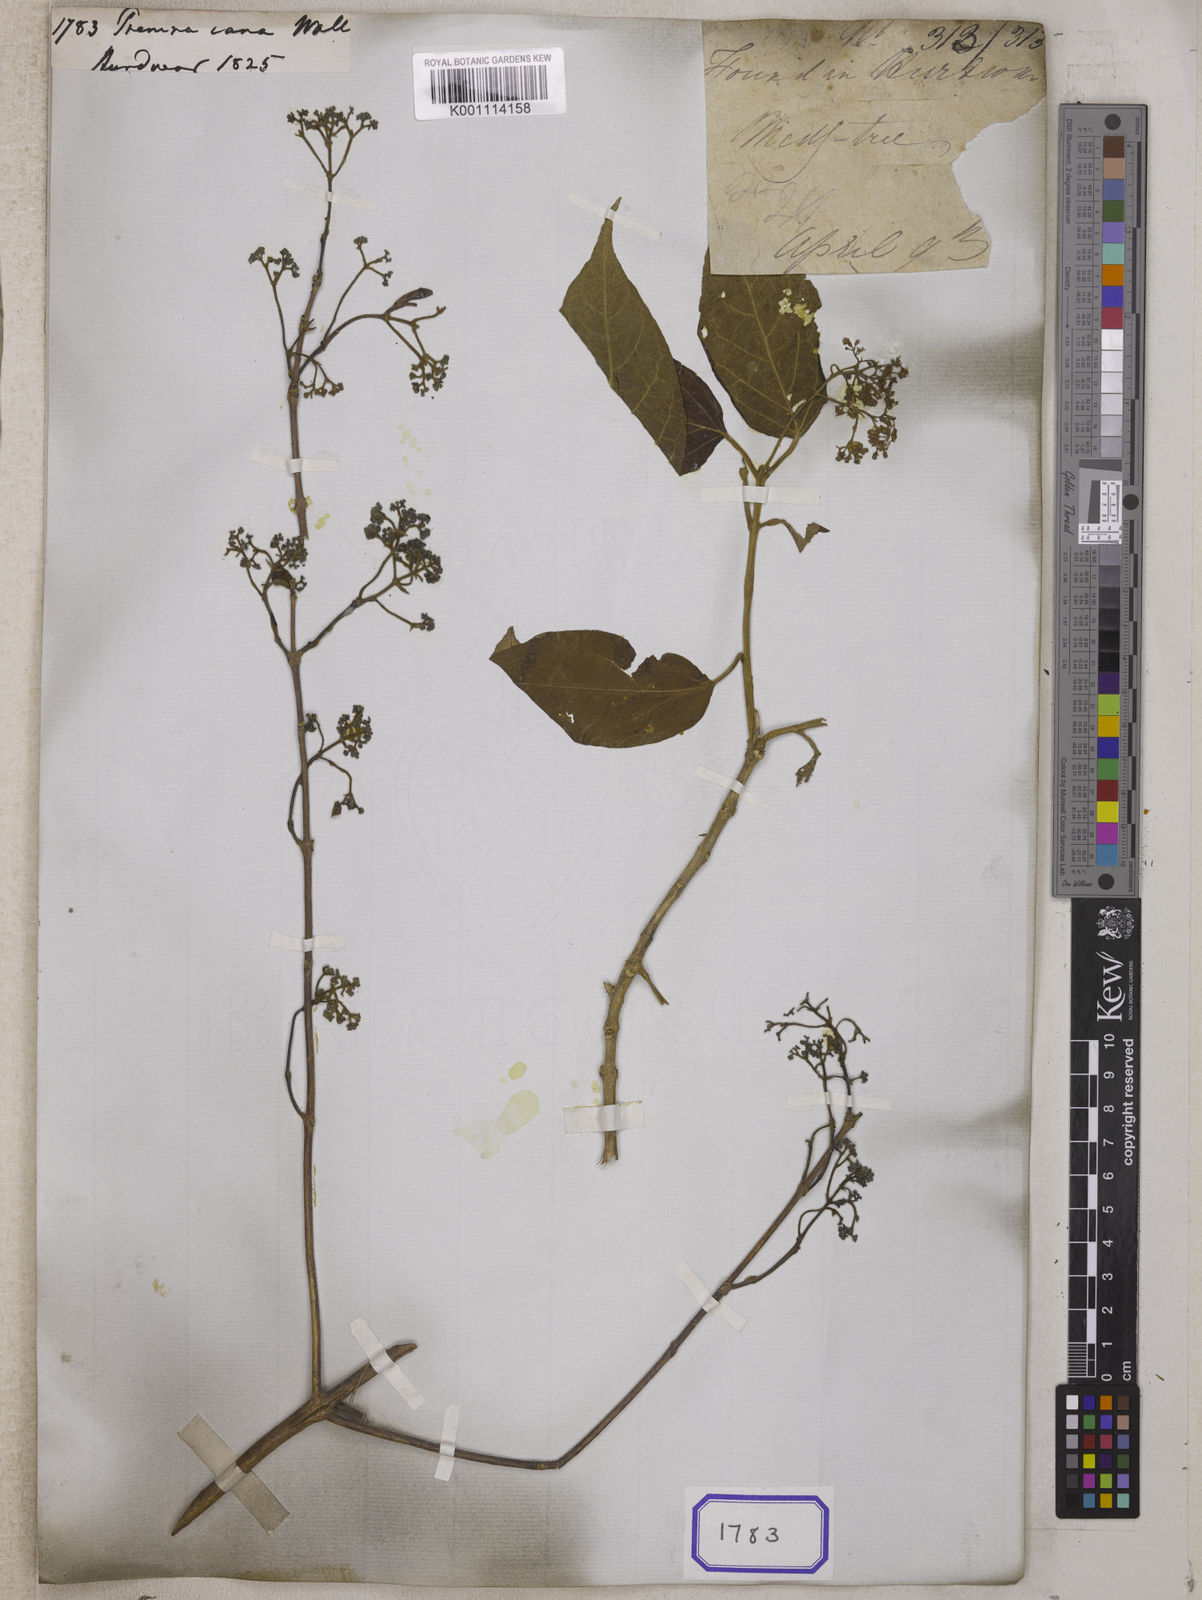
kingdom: Plantae
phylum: Tracheophyta
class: Magnoliopsida
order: Lamiales
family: Lamiaceae
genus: Premna
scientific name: Premna
